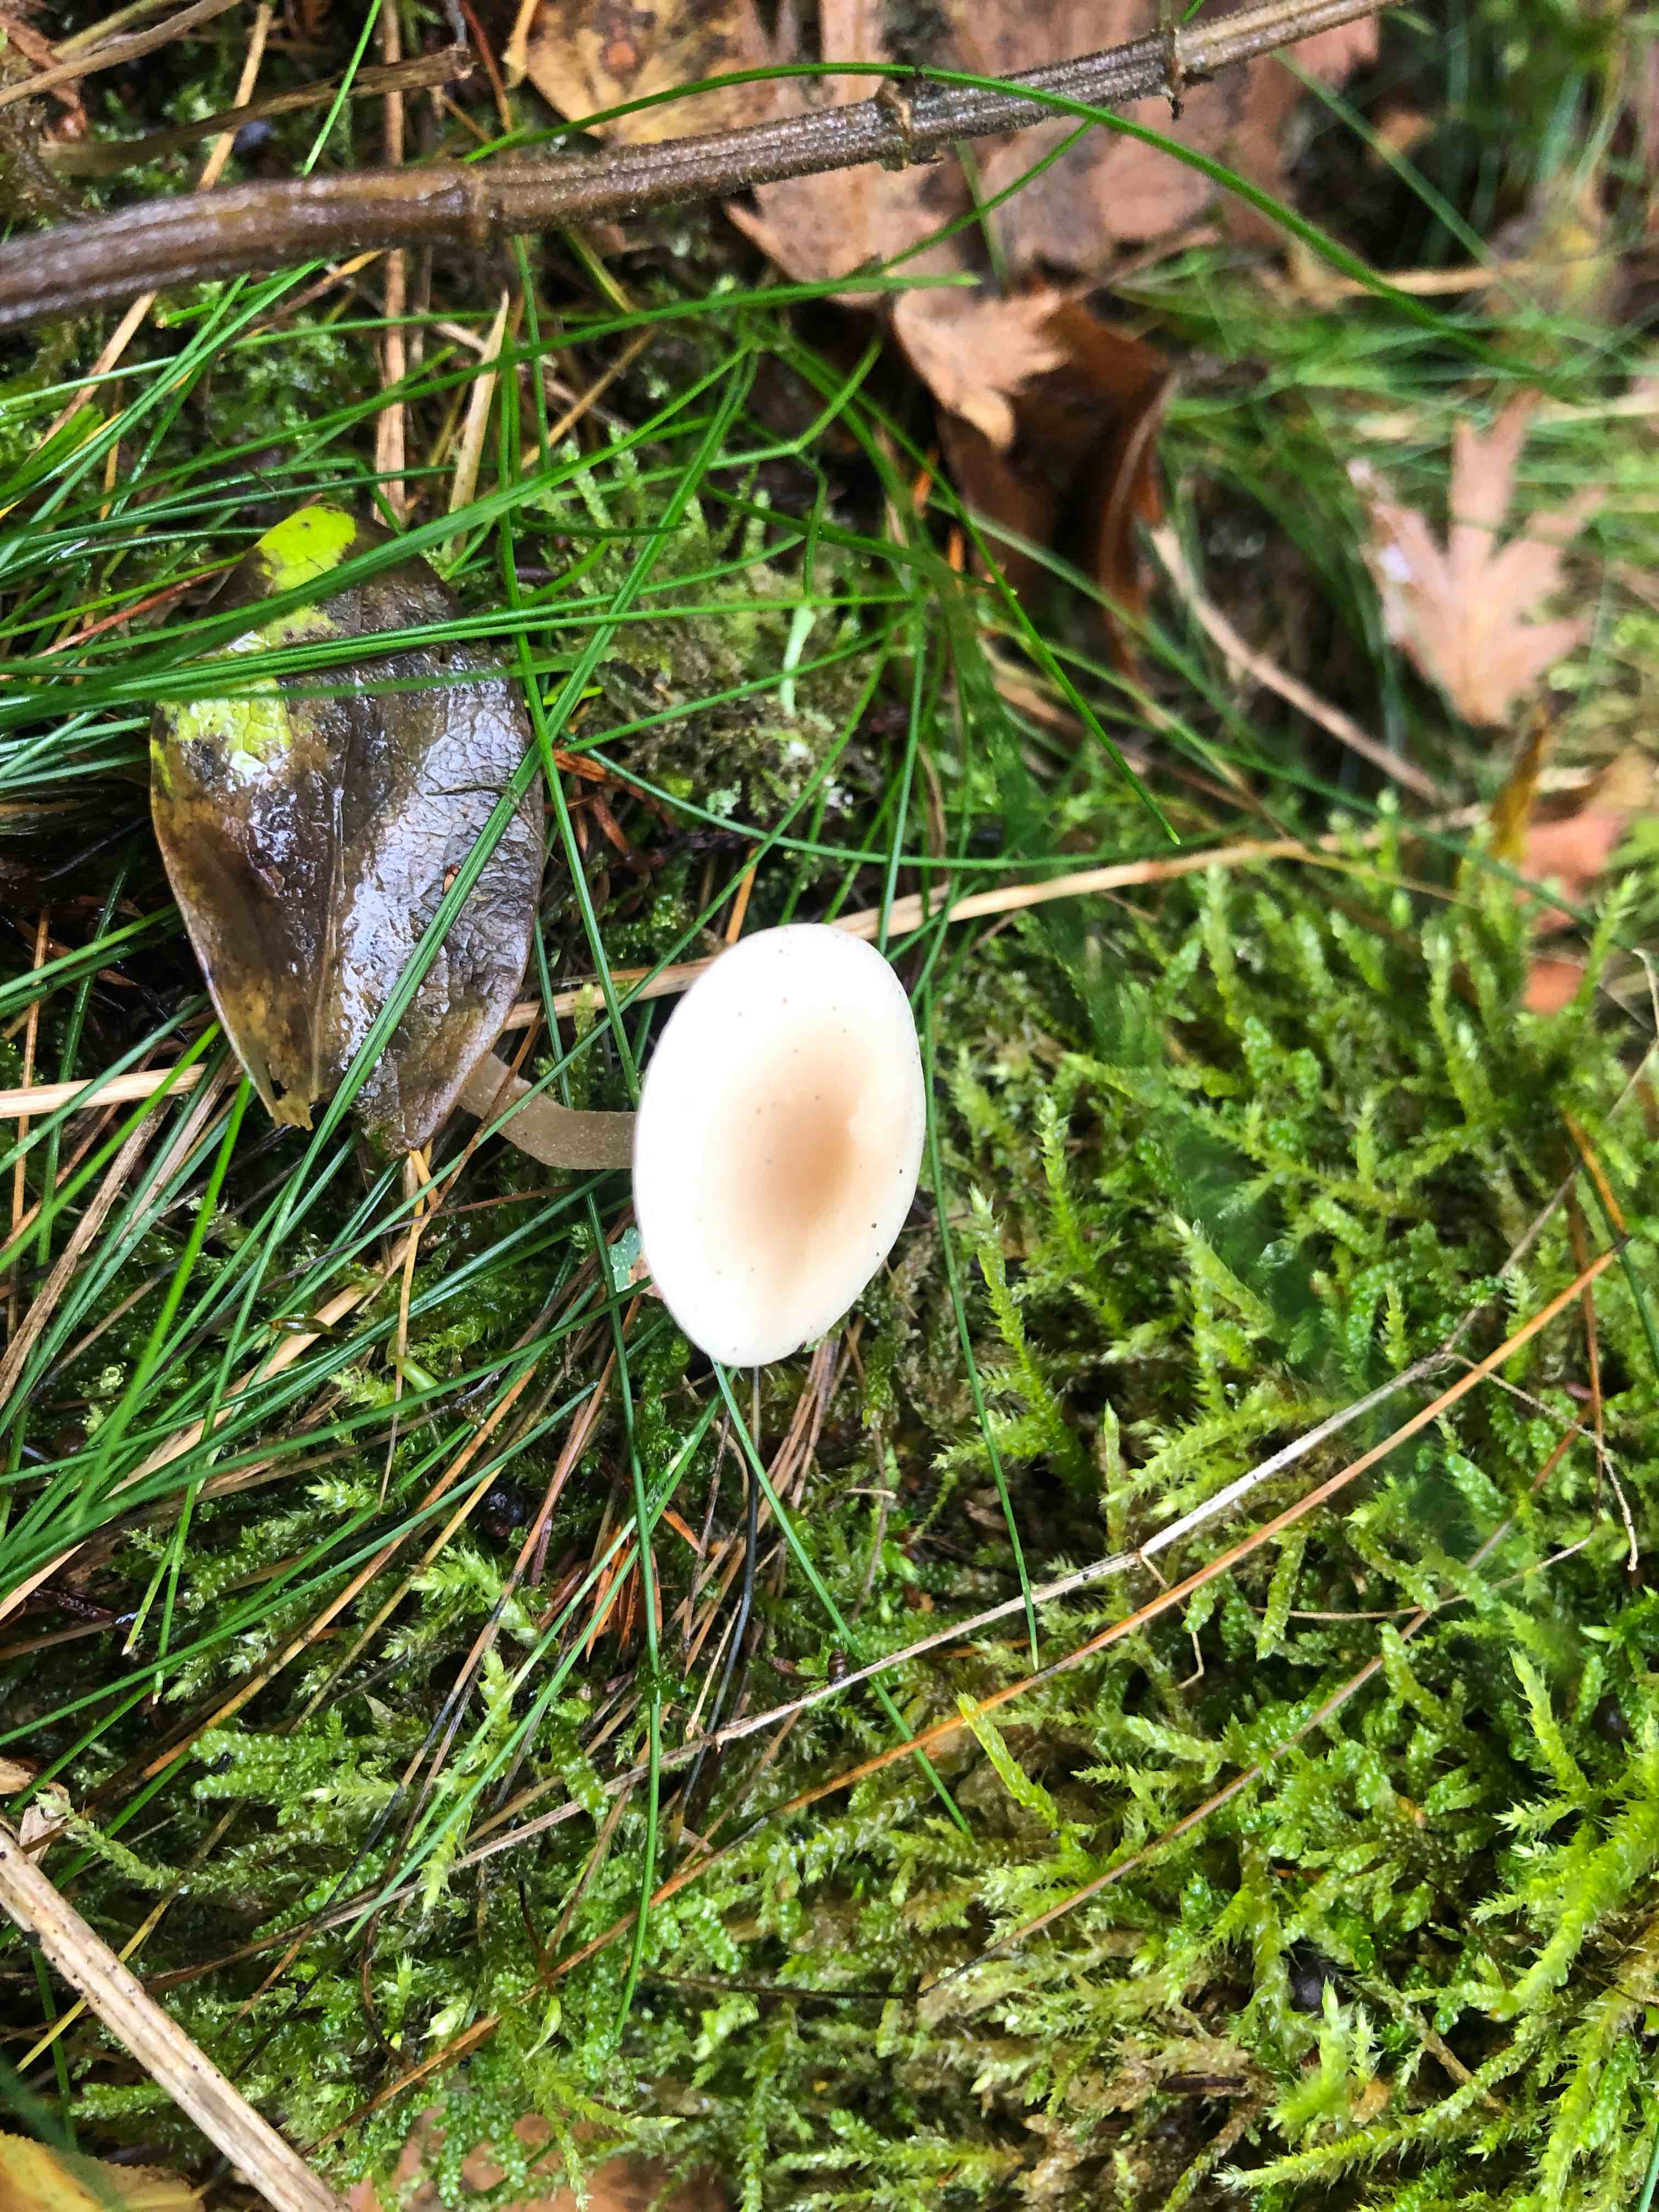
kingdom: Fungi
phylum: Basidiomycota
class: Agaricomycetes
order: Agaricales
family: Tricholomataceae
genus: Clitocybe
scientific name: Clitocybe fragrans
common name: vellugtende tragthat
